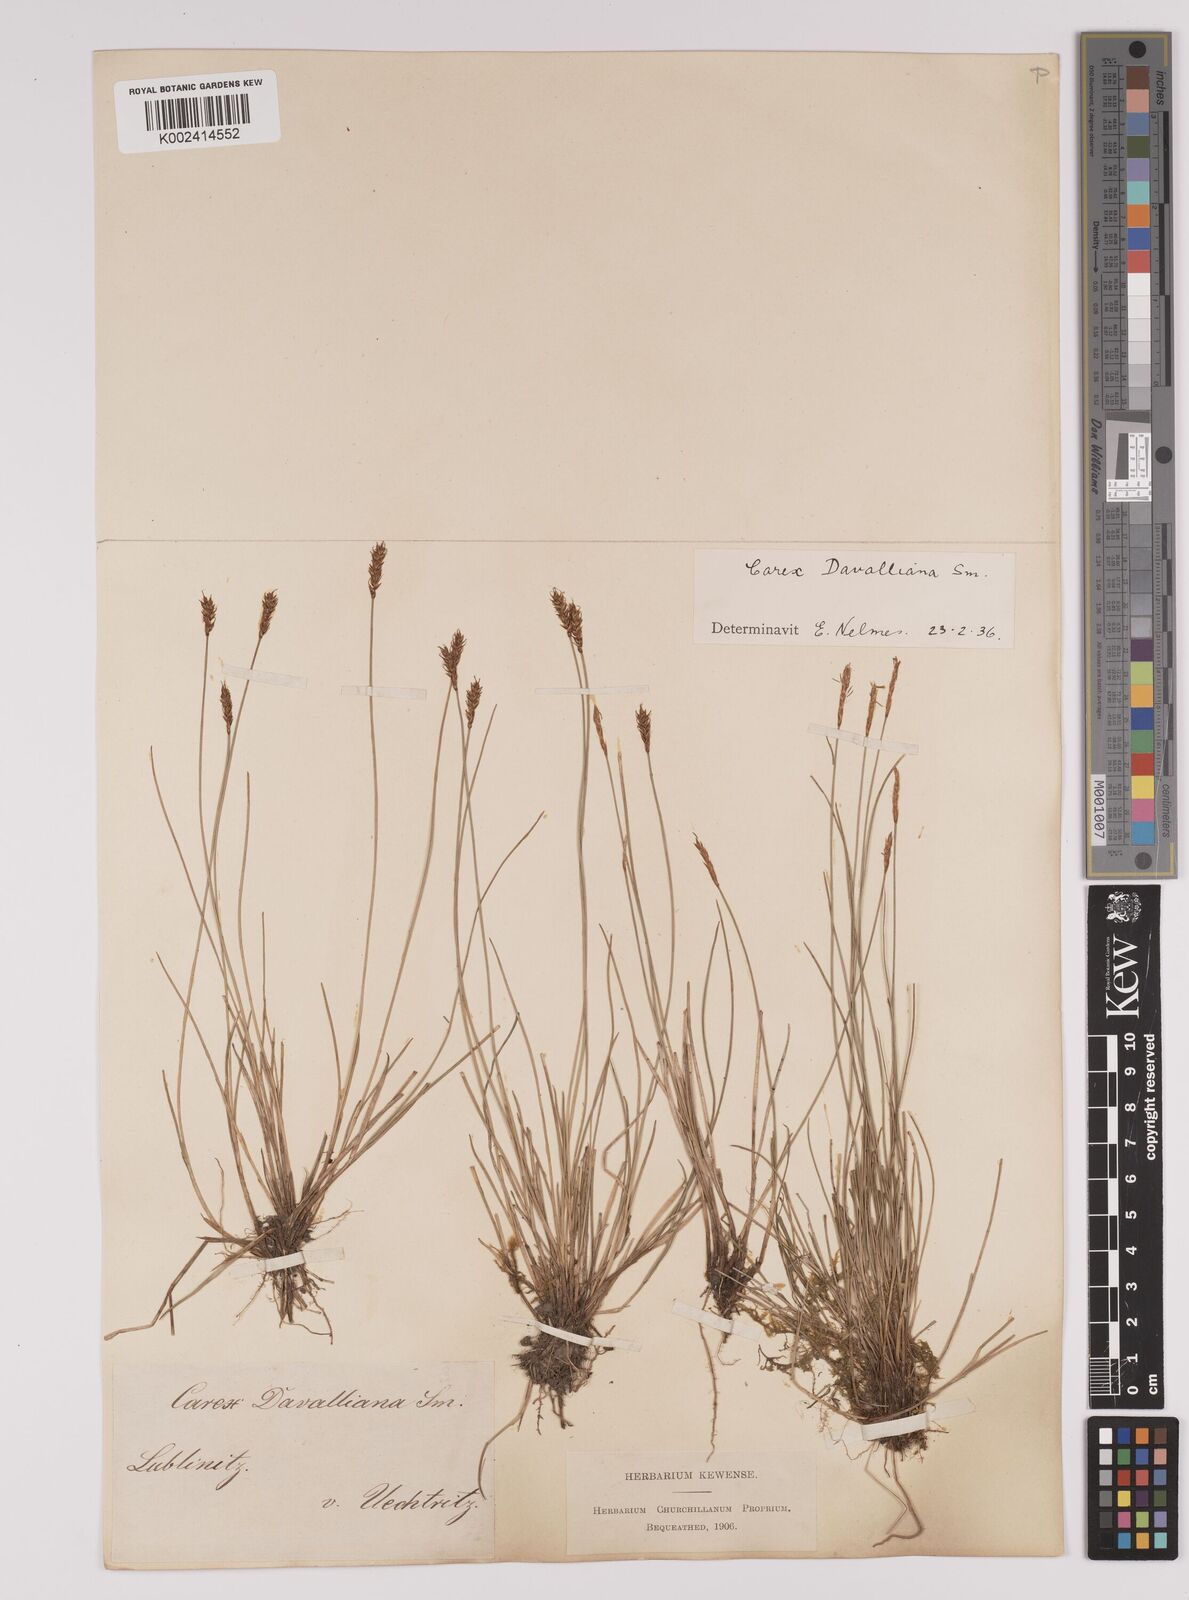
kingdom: Plantae
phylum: Tracheophyta
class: Liliopsida
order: Poales
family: Cyperaceae
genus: Carex
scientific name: Carex davalliana
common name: Davall's sedge
